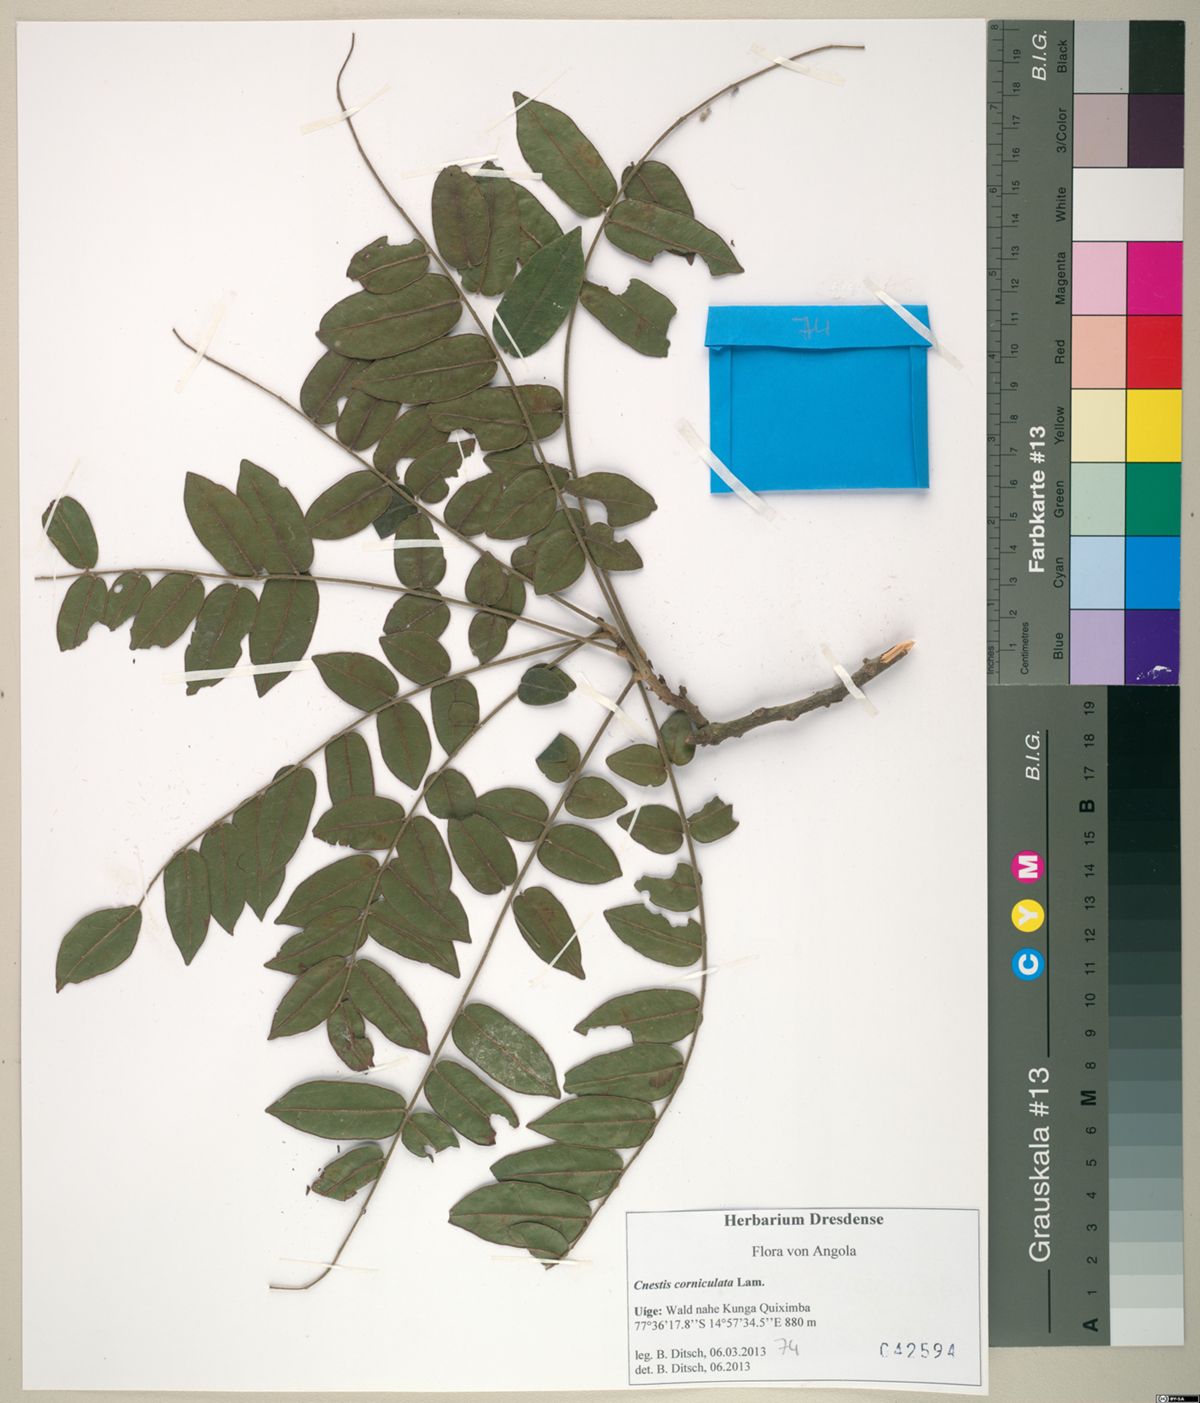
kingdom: Plantae
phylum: Tracheophyta
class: Magnoliopsida
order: Oxalidales
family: Connaraceae
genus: Cnestis
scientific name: Cnestis corniculata
